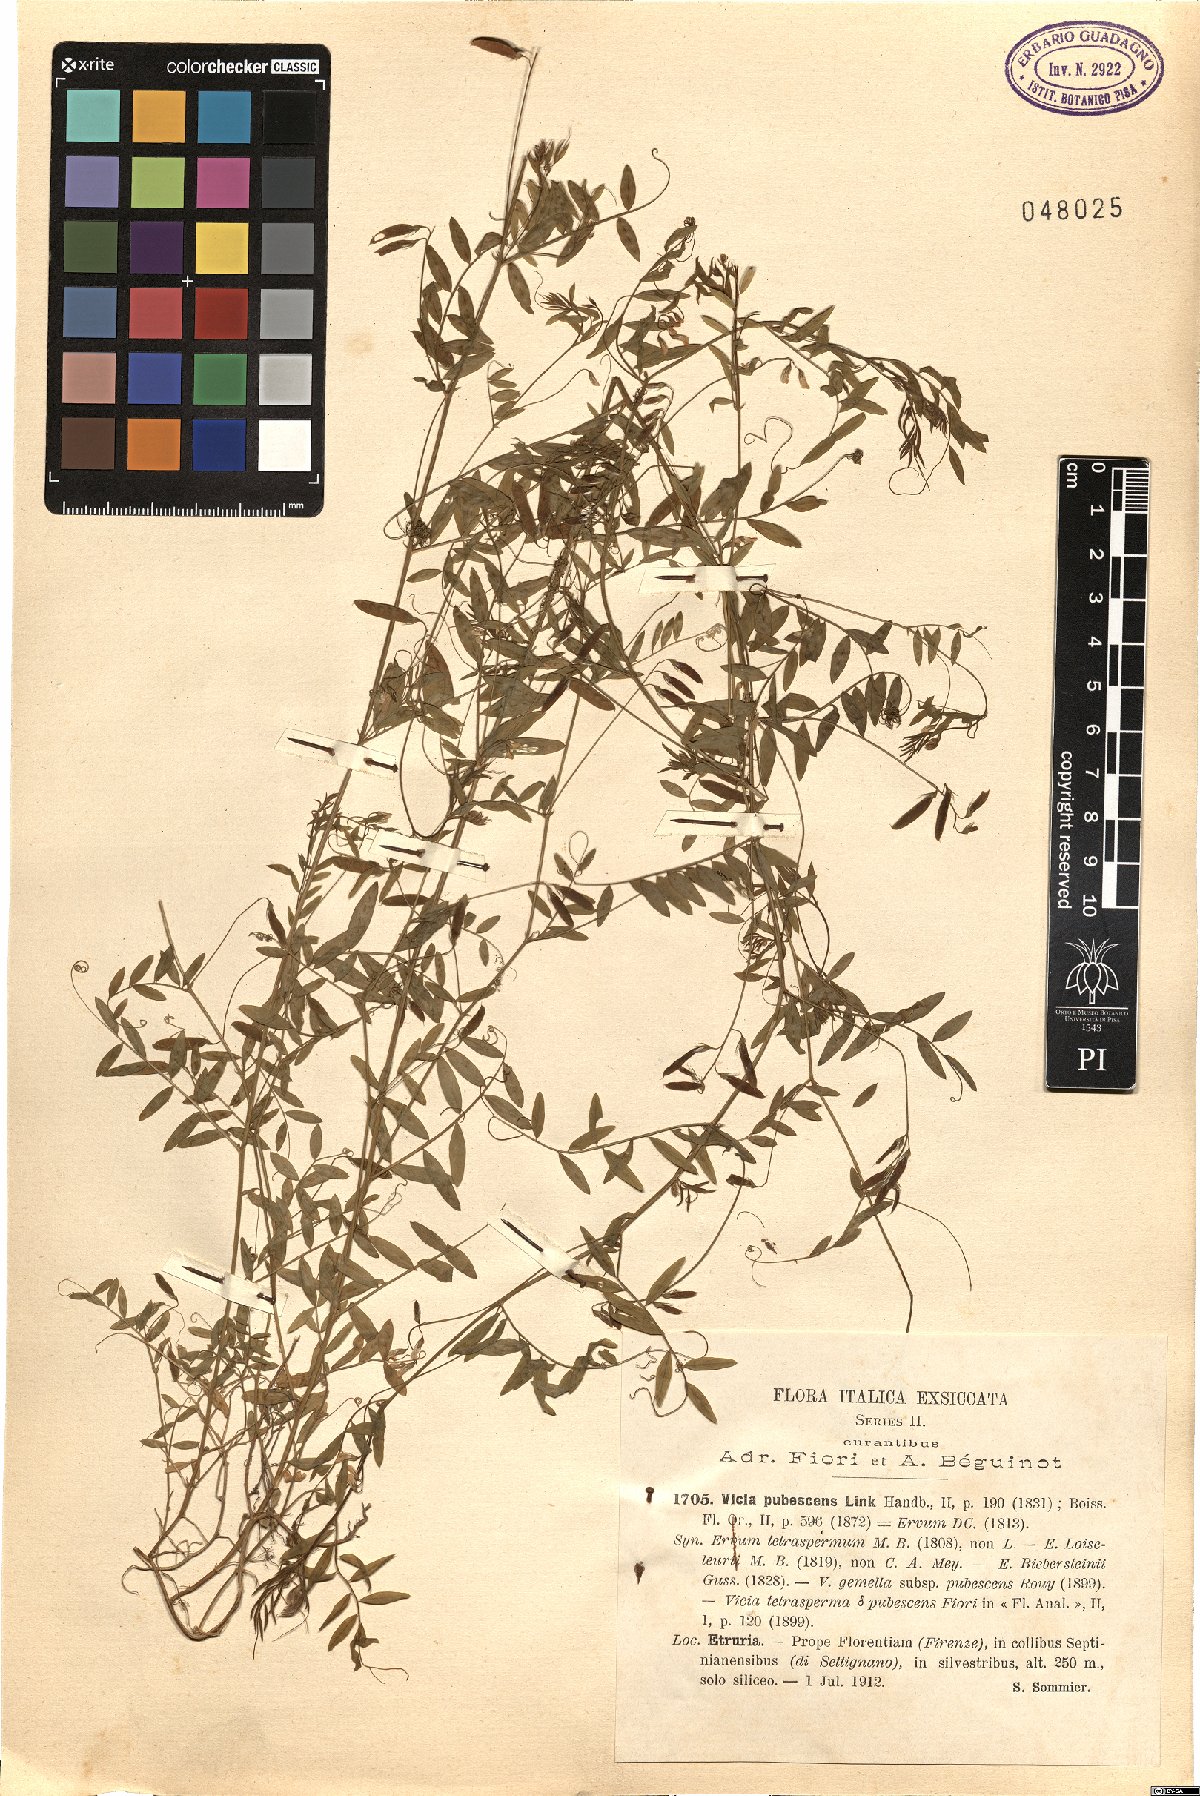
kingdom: Plantae
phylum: Tracheophyta
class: Magnoliopsida
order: Fabales
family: Fabaceae
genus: Vicia
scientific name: Vicia pubescens
